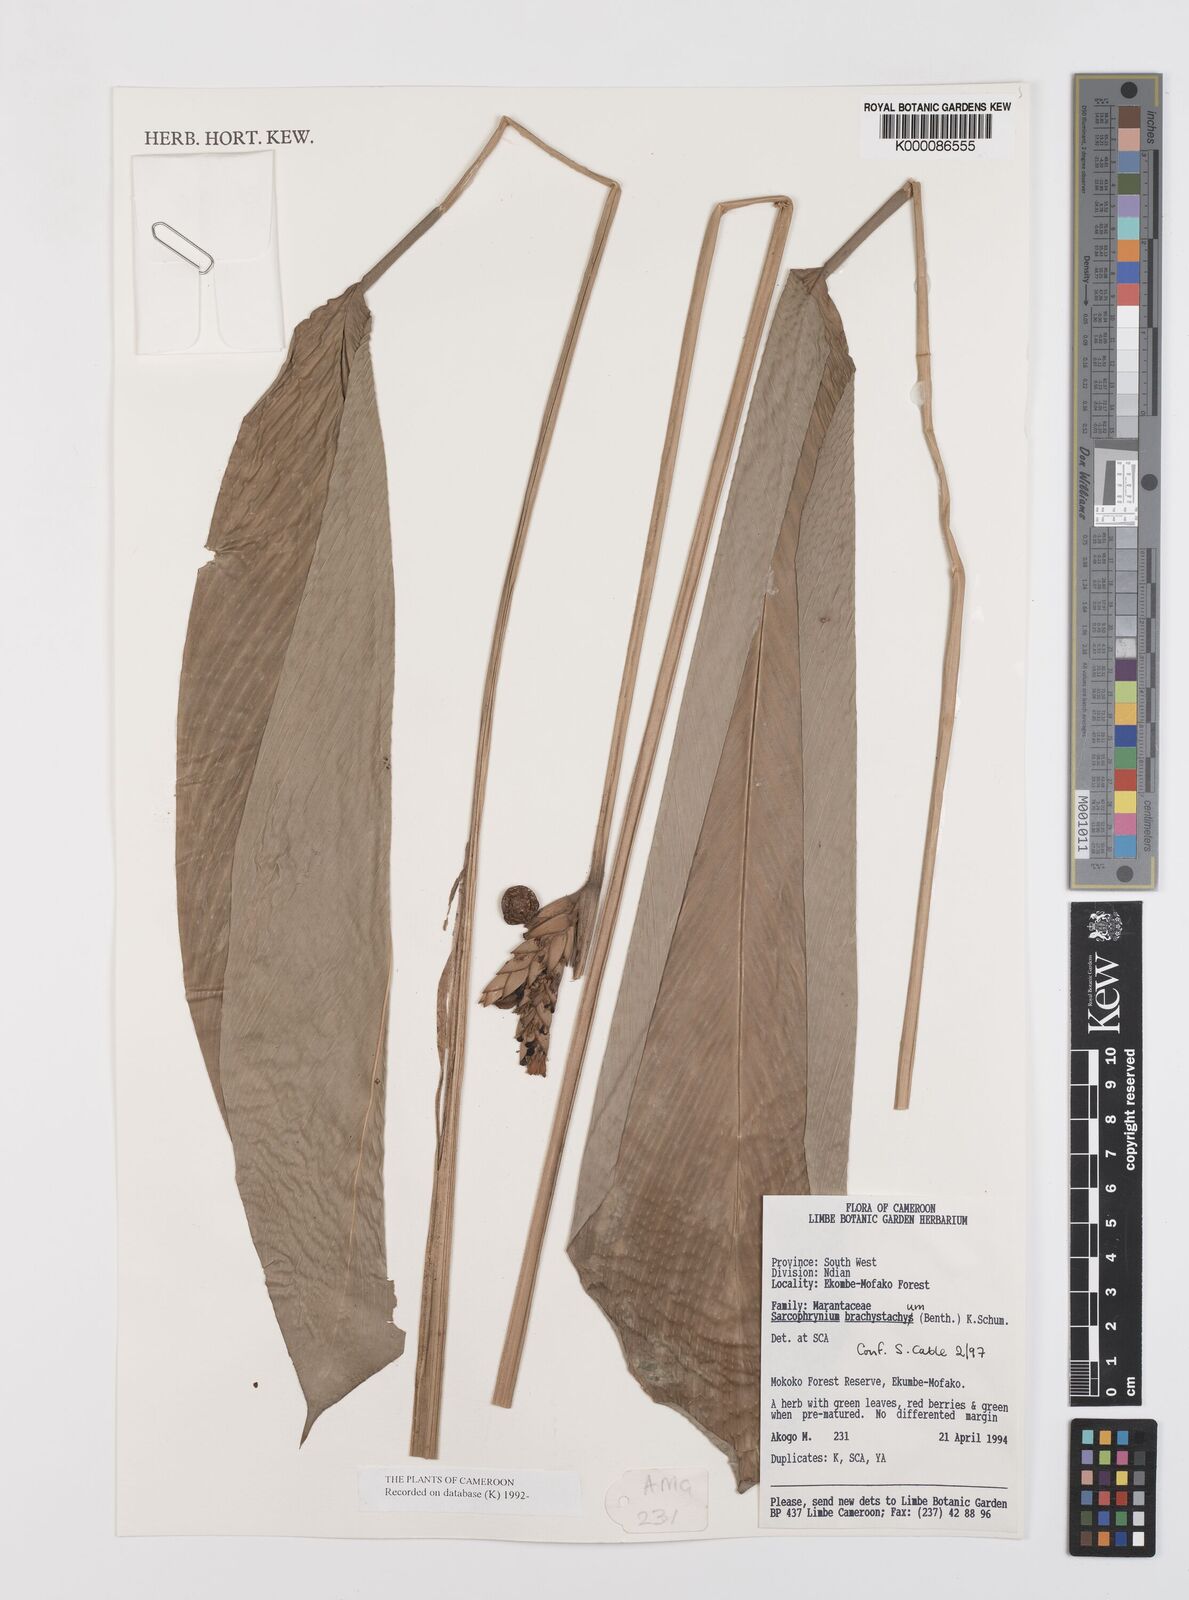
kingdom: Plantae
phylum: Tracheophyta
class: Liliopsida
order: Zingiberales
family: Marantaceae
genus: Sarcophrynium
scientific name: Sarcophrynium
